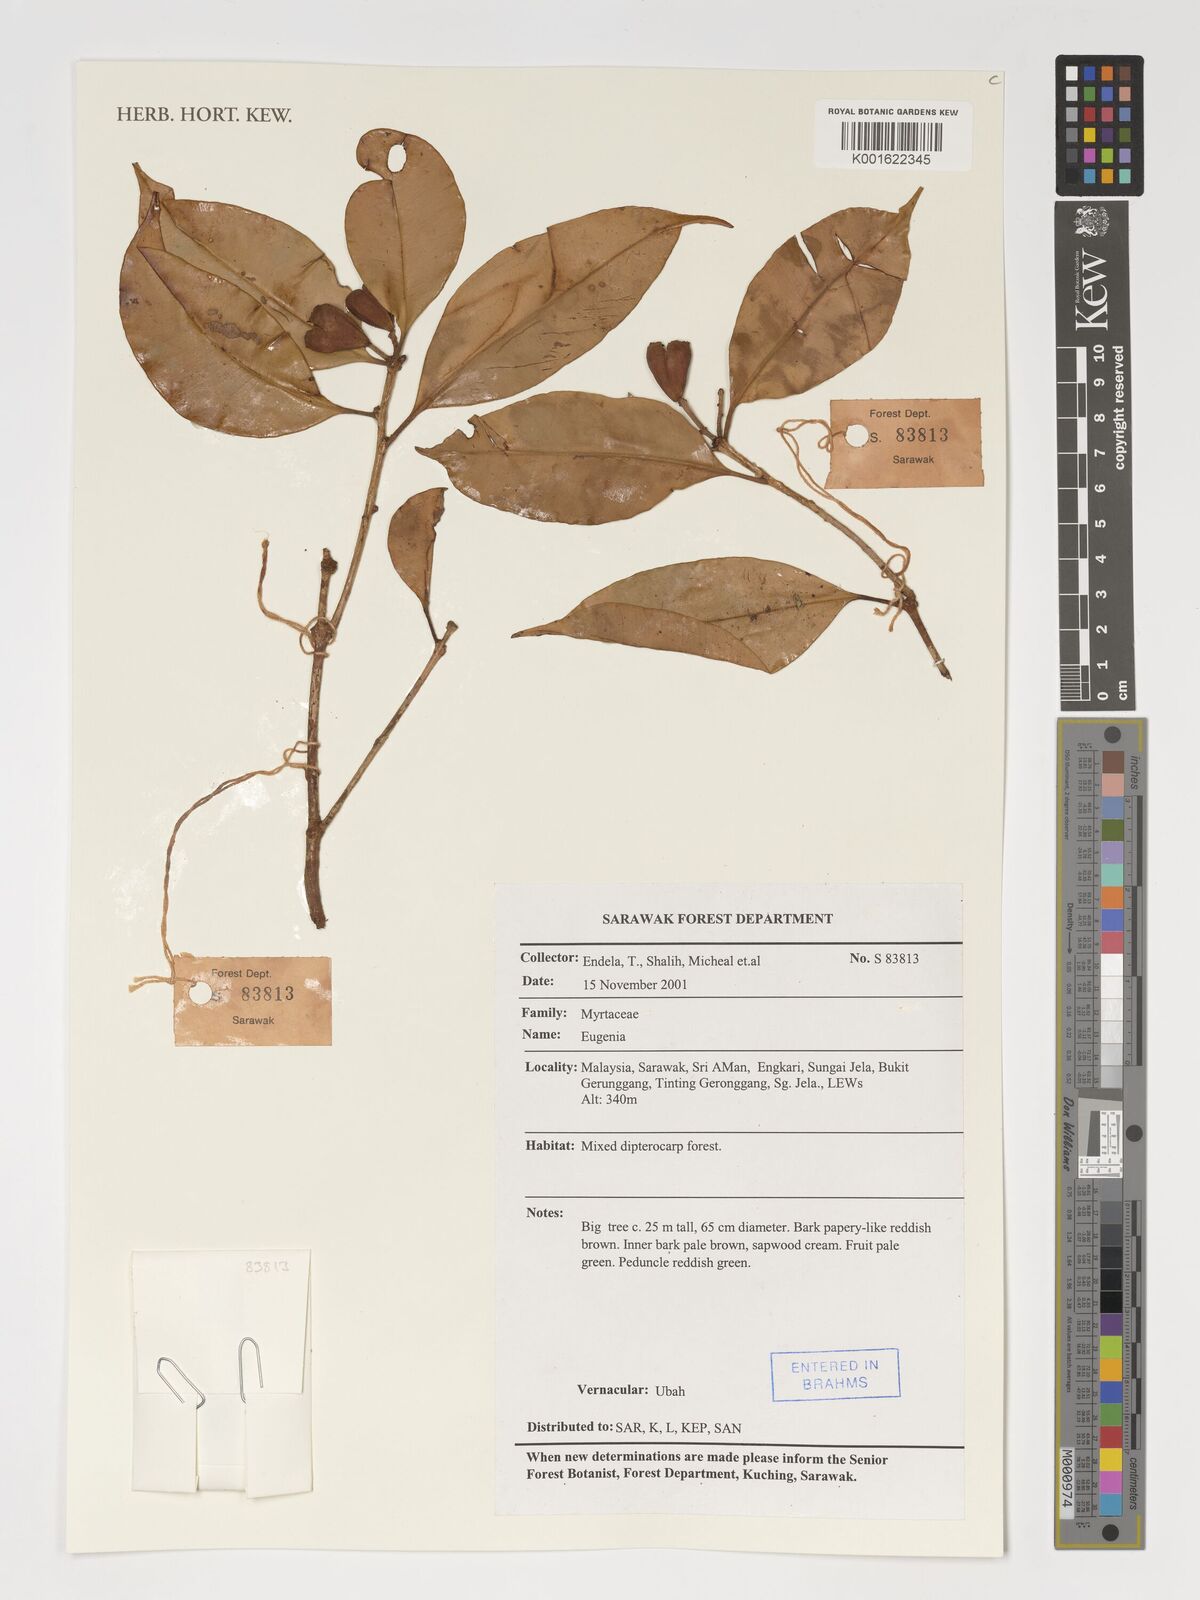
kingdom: Plantae
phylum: Tracheophyta
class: Magnoliopsida
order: Myrtales
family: Myrtaceae
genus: Eugenia
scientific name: Eugenia
